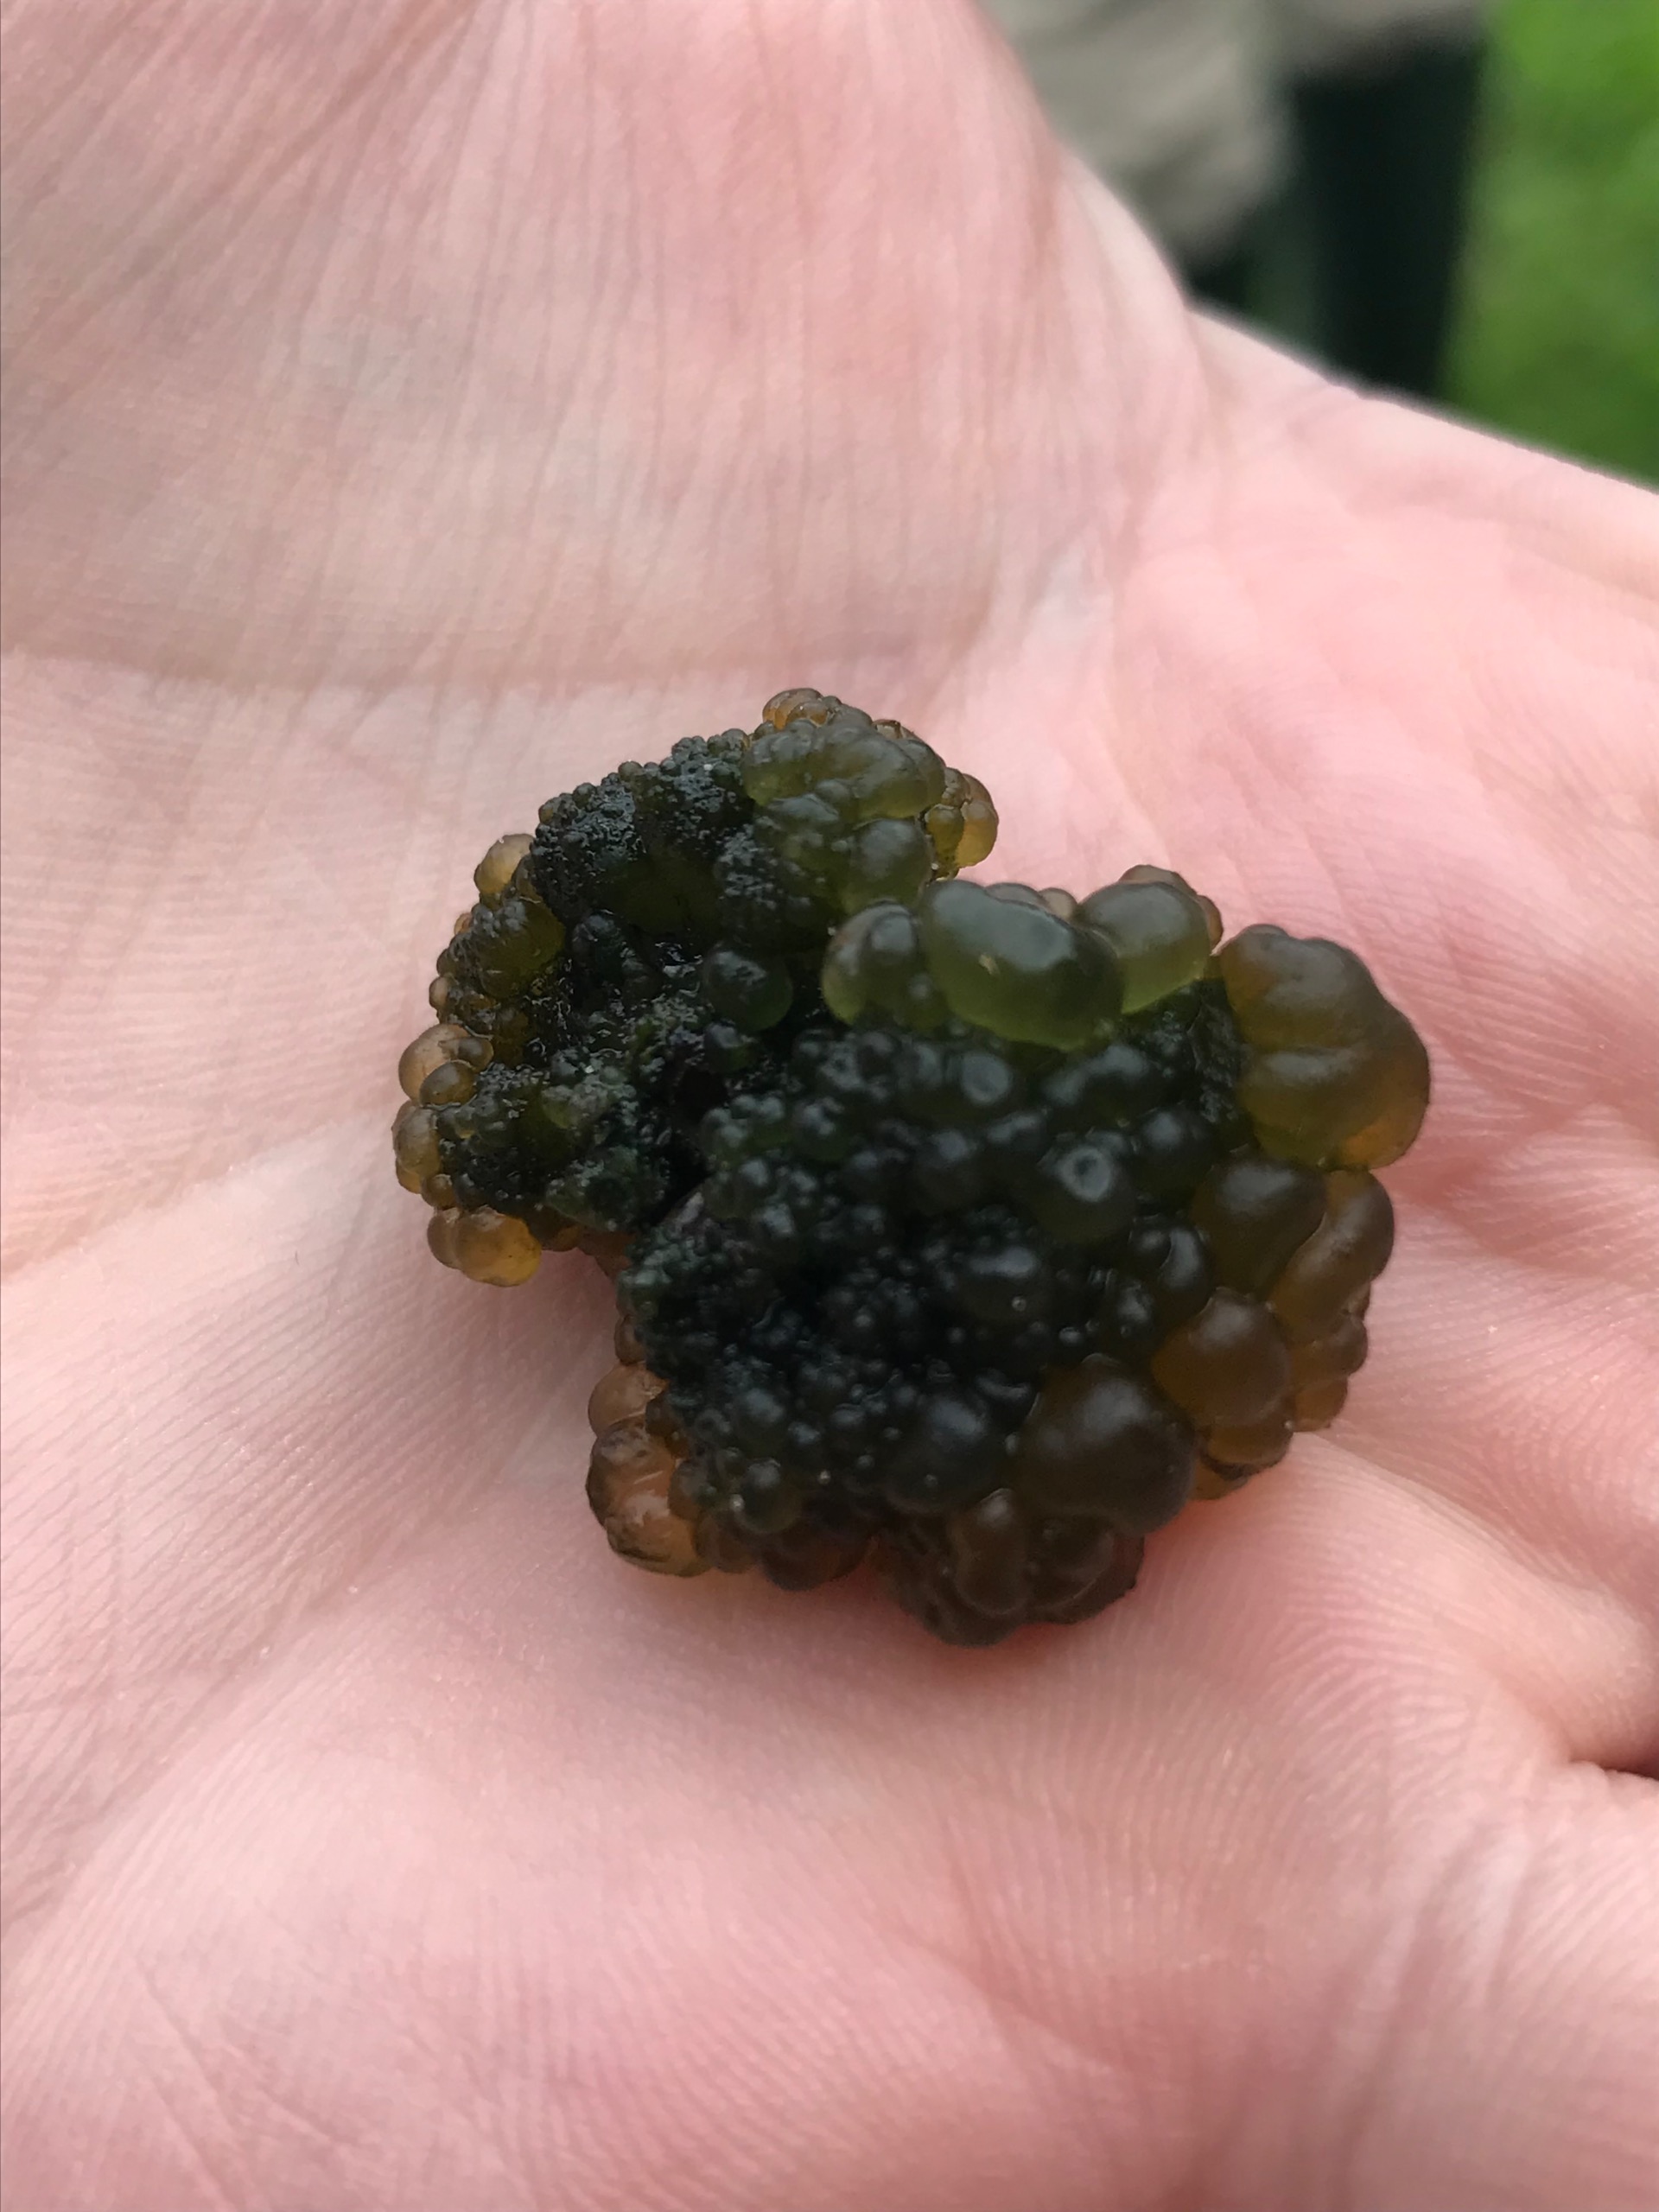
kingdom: Bacteria
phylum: Cyanobacteria
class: Cyanobacteriia
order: Cyanobacteriales
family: Nostocaceae
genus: Nostoc
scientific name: Nostoc zetterstedtii
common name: Søbrombær
